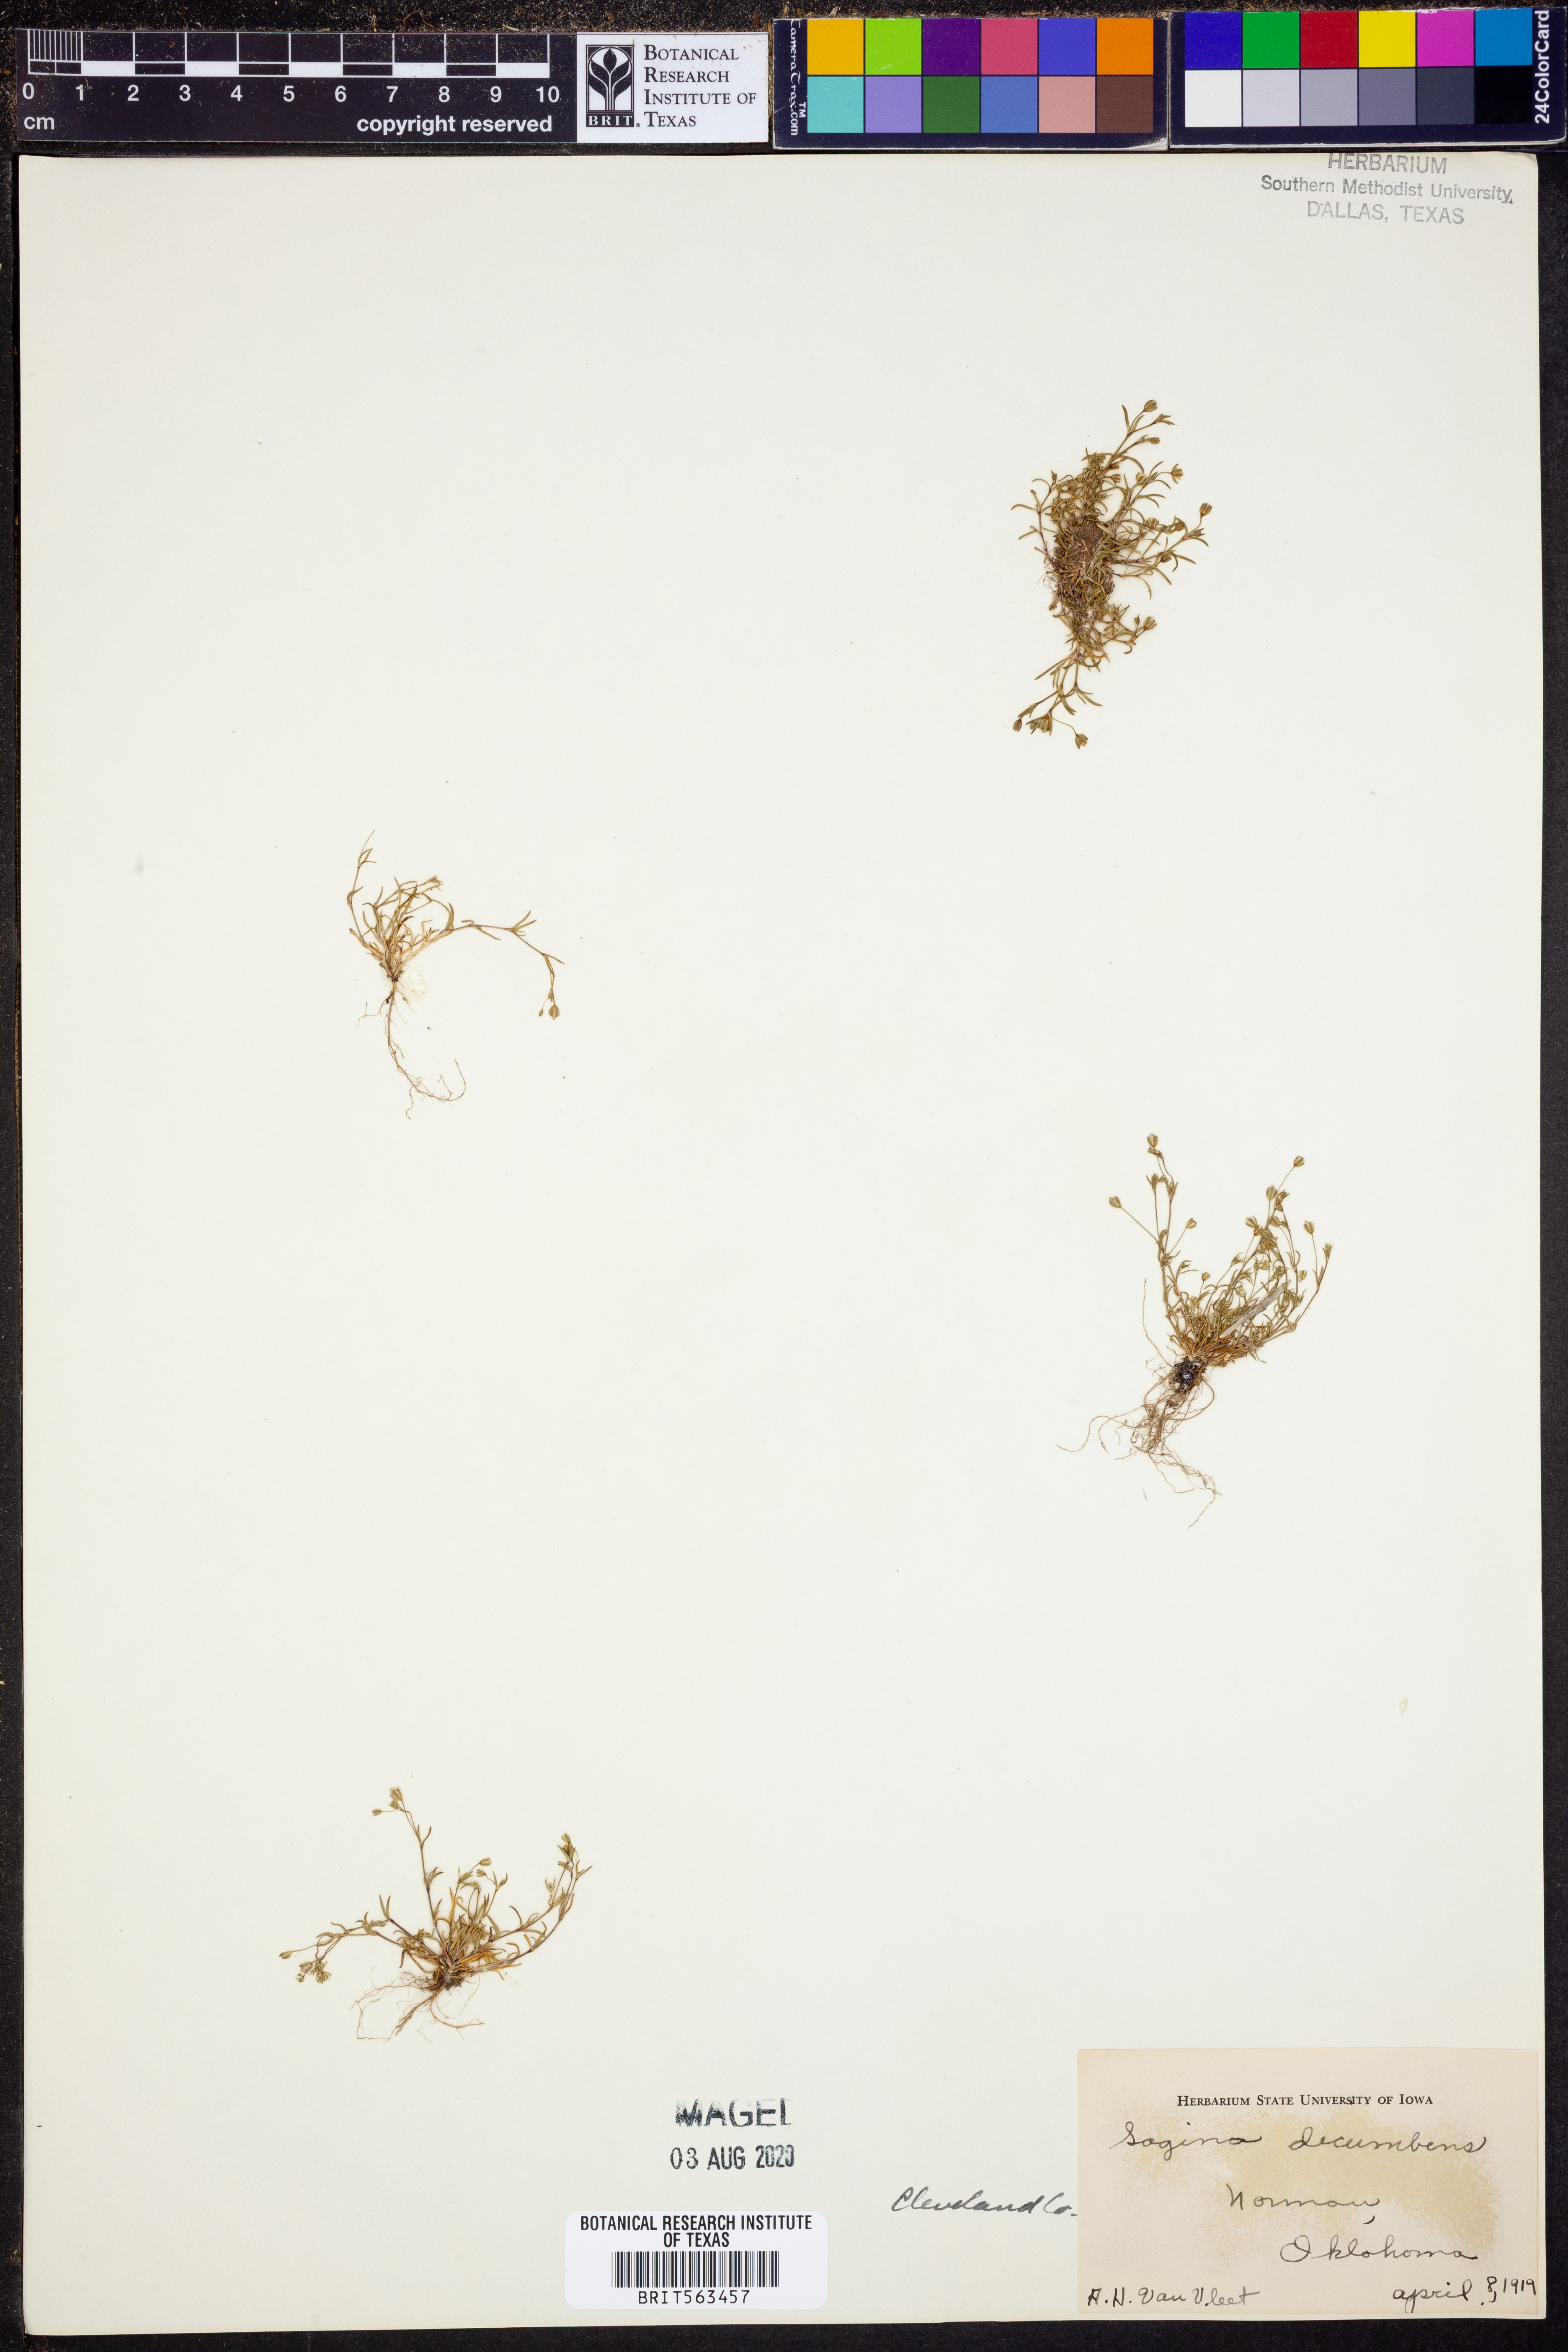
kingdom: Plantae
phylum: Tracheophyta
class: Magnoliopsida
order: Caryophyllales
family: Caryophyllaceae
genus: Sagina
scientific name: Sagina decumbens
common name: Decumbent pearlwort
